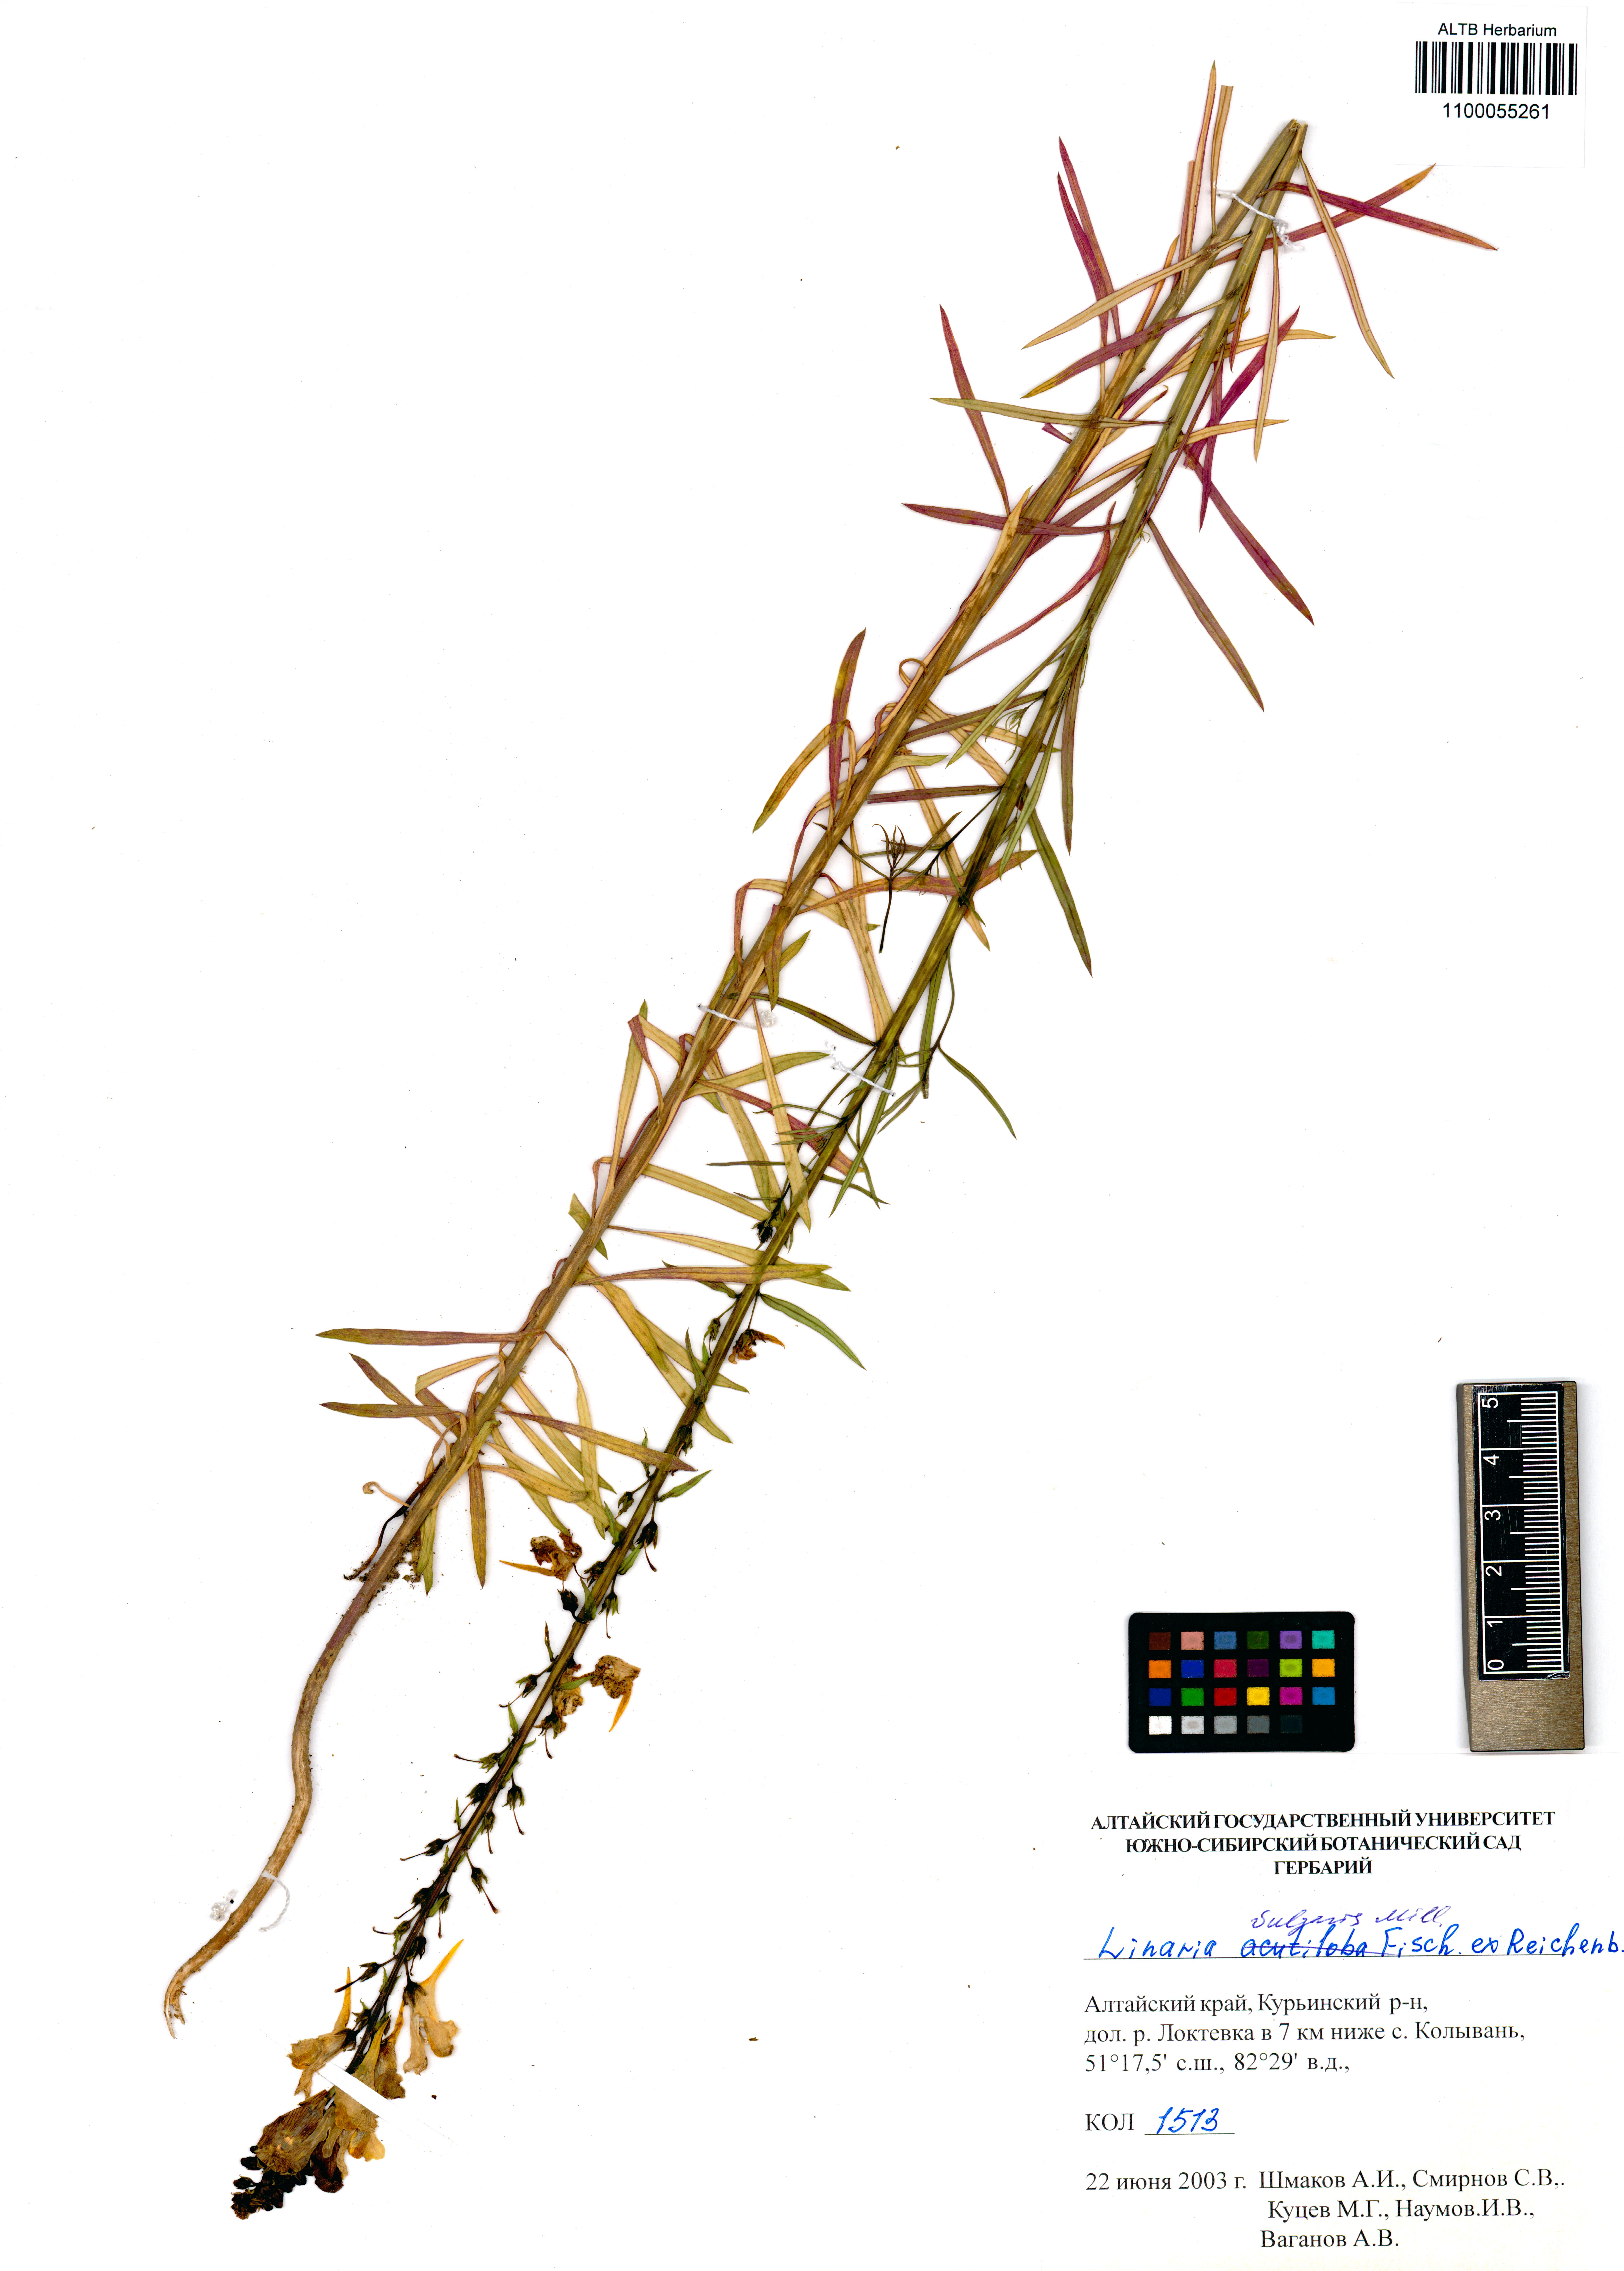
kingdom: Plantae
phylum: Tracheophyta
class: Magnoliopsida
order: Lamiales
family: Plantaginaceae
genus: Linaria
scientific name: Linaria vulgaris
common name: Butter and eggs
